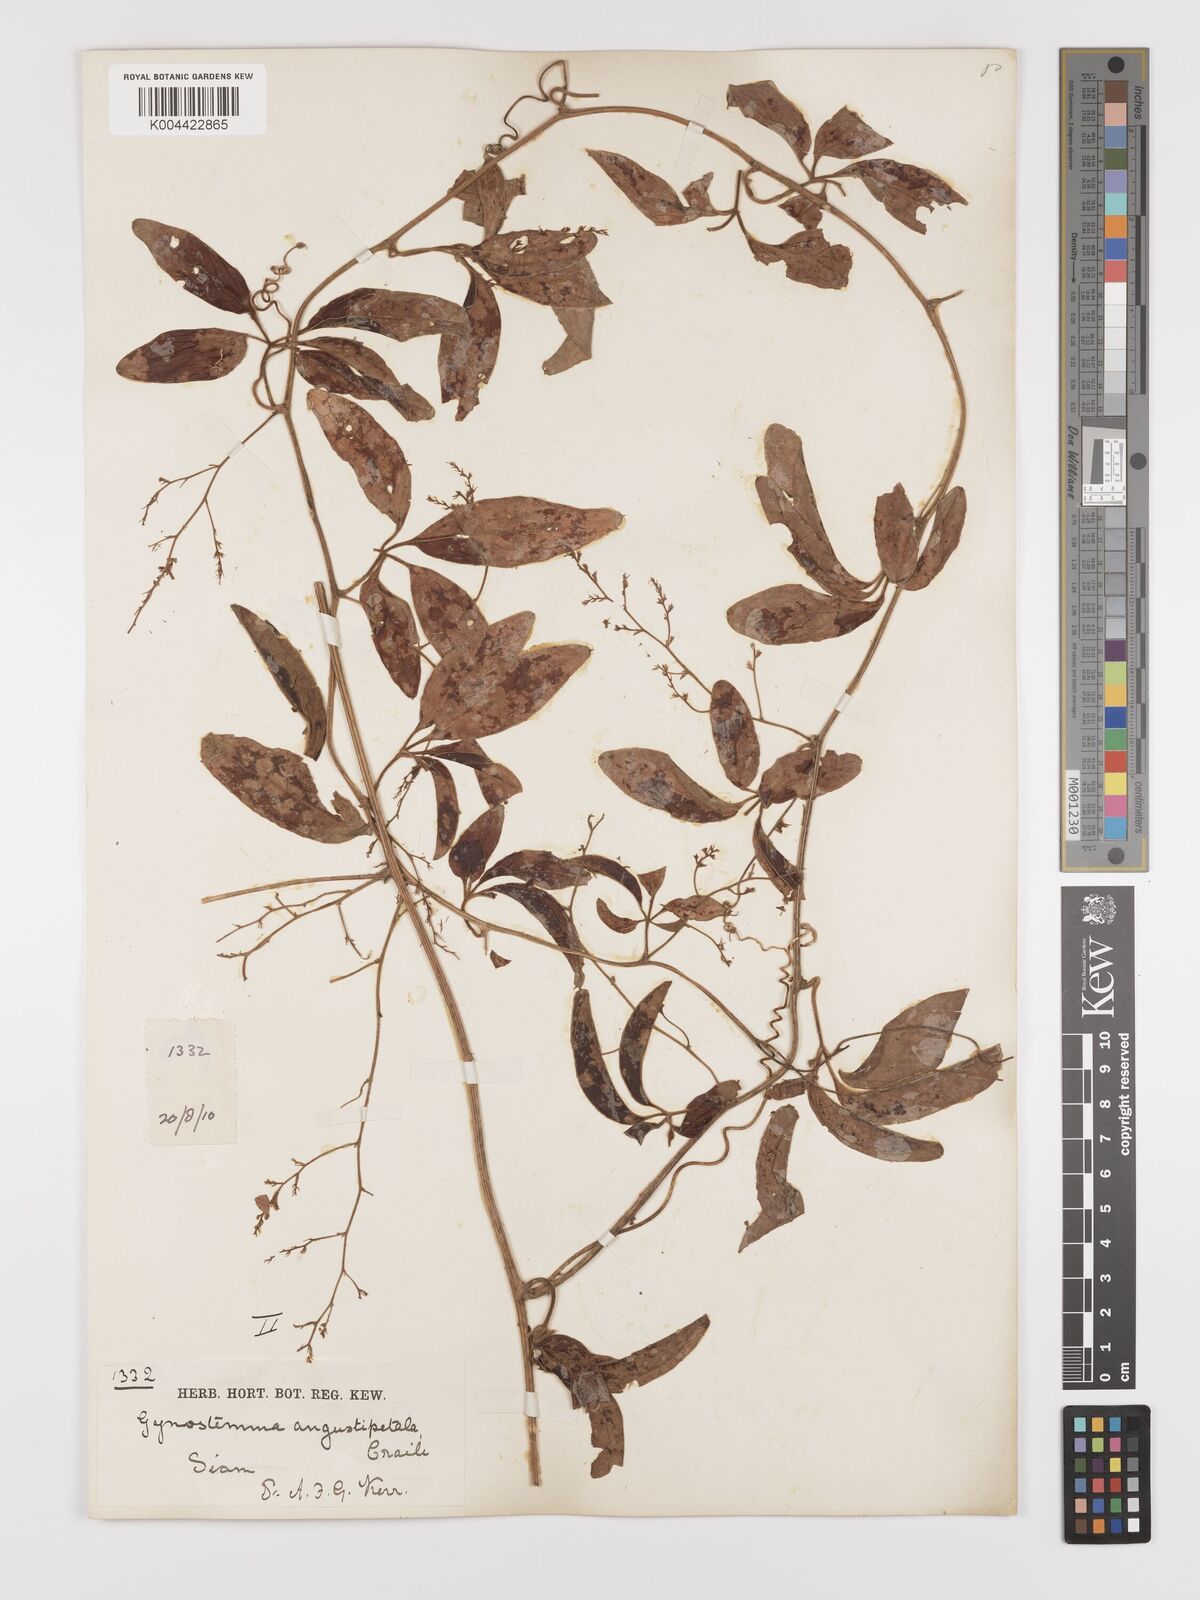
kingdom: Plantae
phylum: Tracheophyta
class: Magnoliopsida
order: Cucurbitales
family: Cucurbitaceae
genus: Neoalsomitra
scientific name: Neoalsomitra angustipetala
